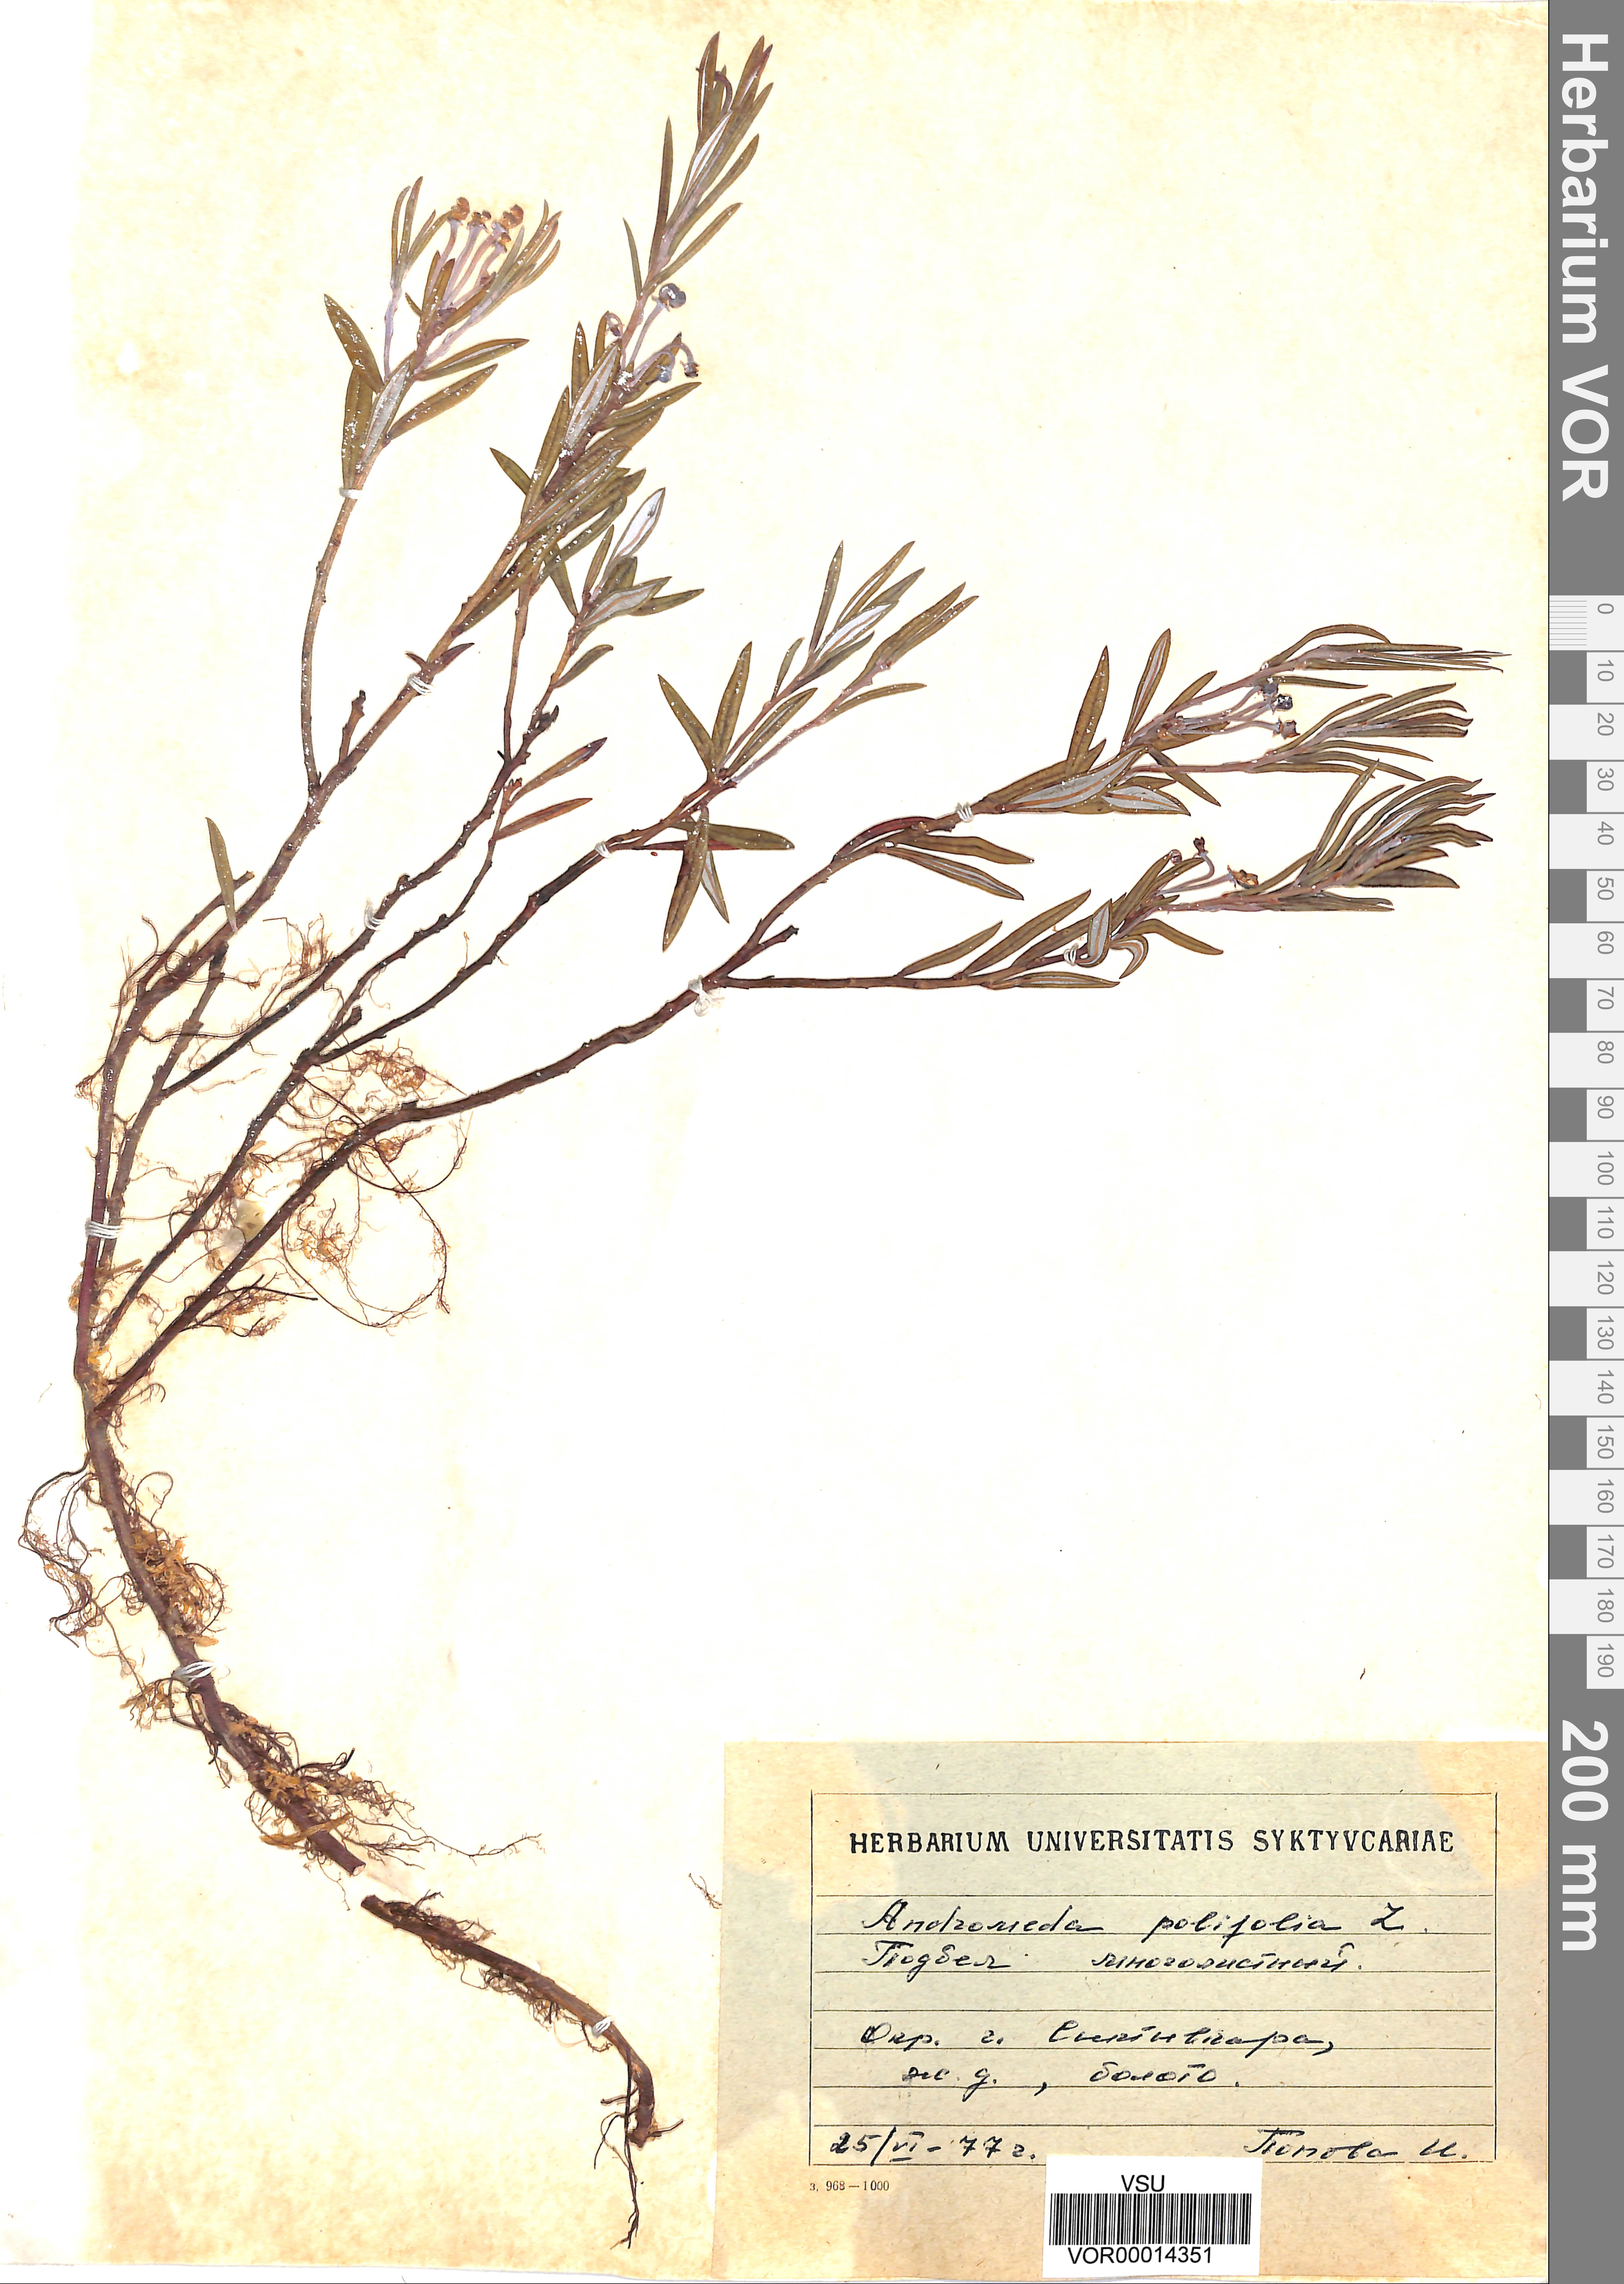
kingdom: Plantae
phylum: Tracheophyta
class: Magnoliopsida
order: Ericales
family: Ericaceae
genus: Andromeda
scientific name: Andromeda polifolia
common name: Bog-rosemary
